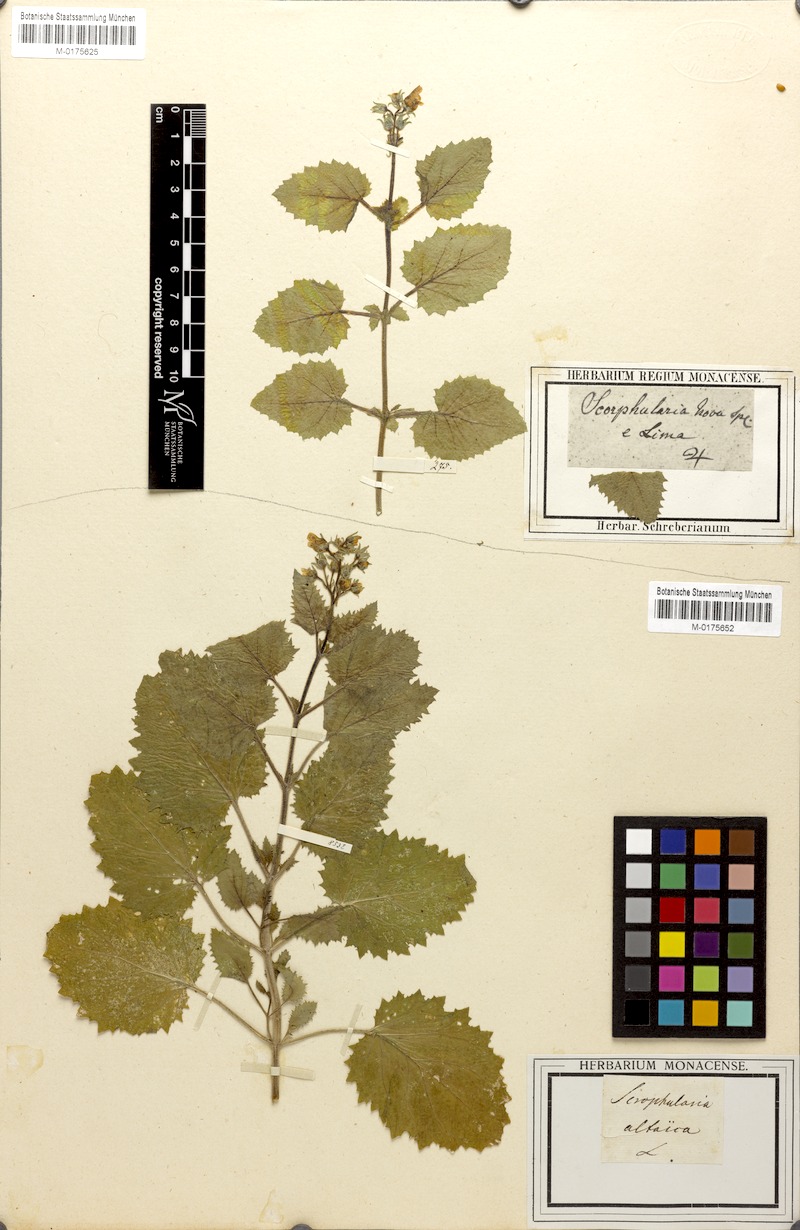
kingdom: Plantae
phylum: Tracheophyta
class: Magnoliopsida
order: Lamiales
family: Scrophulariaceae
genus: Scrophularia
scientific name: Scrophularia altaica
